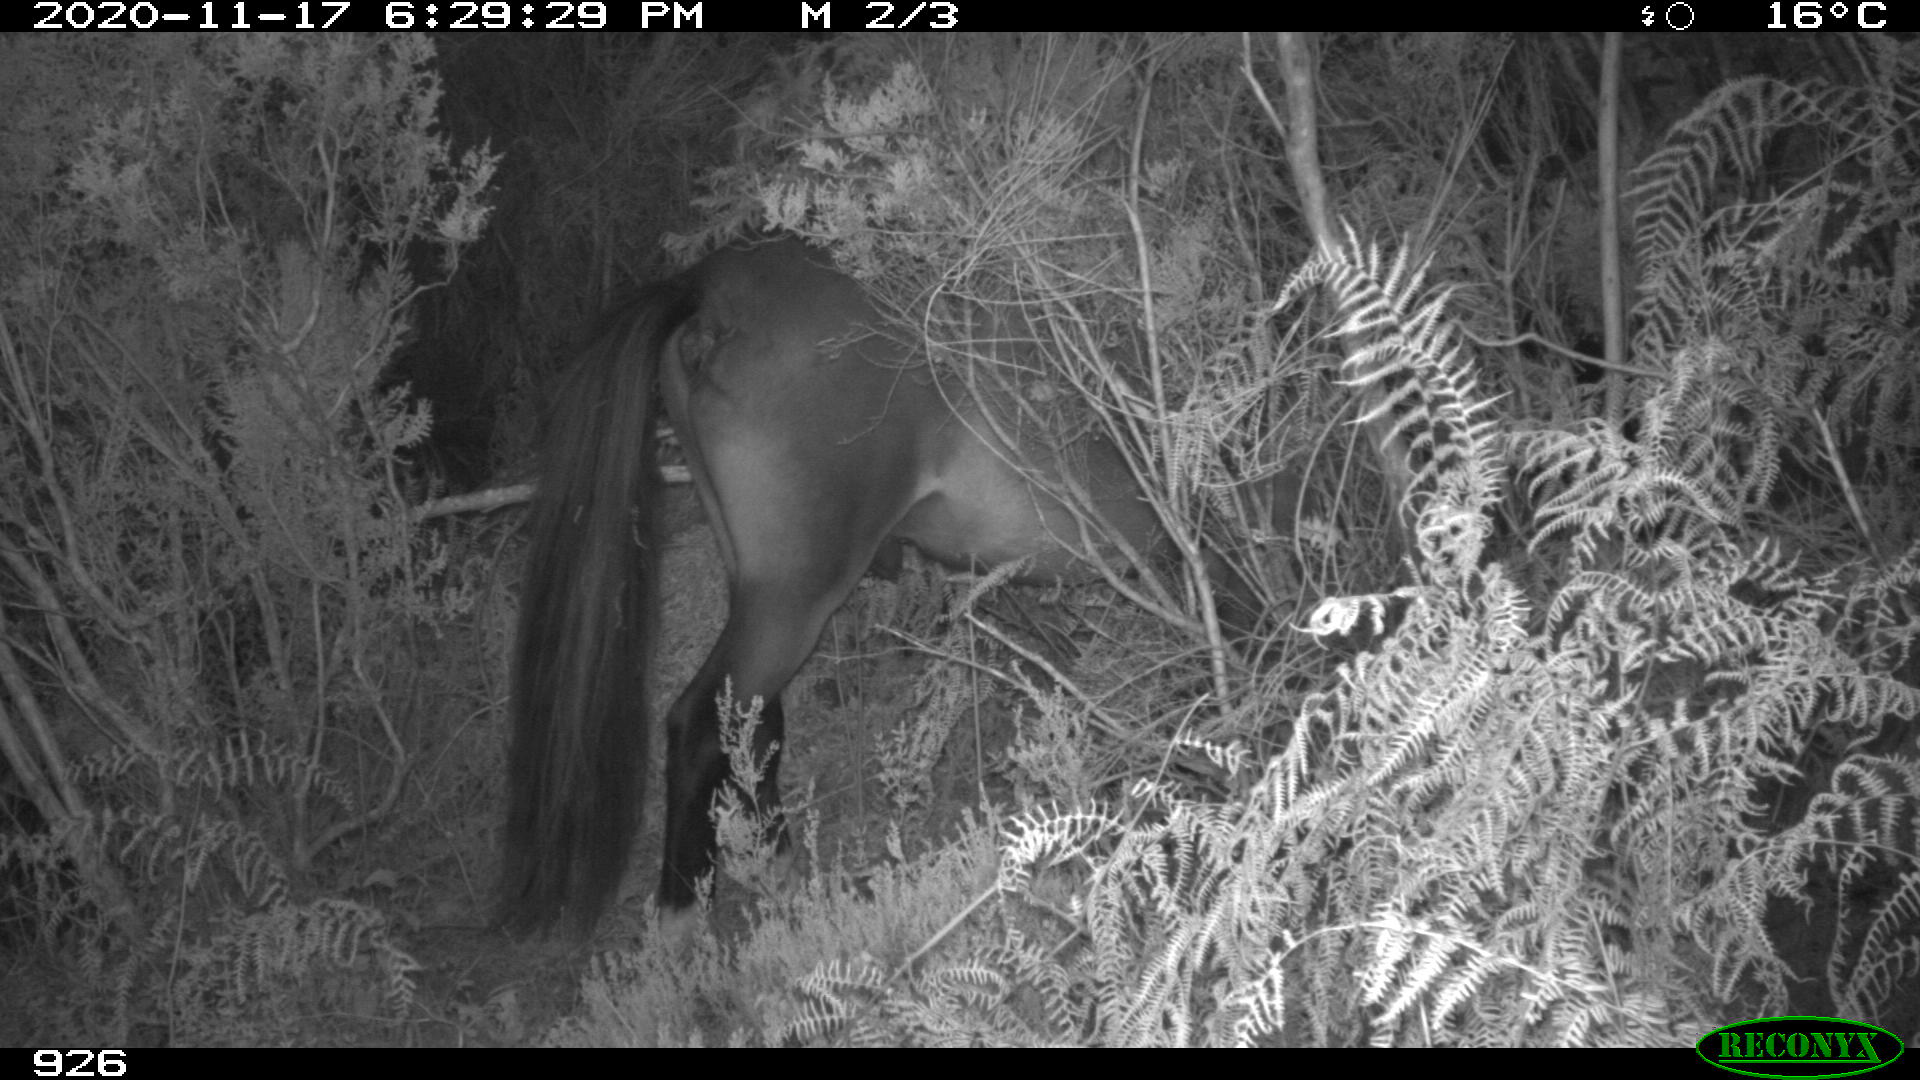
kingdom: Animalia
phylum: Chordata
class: Mammalia
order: Perissodactyla
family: Equidae
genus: Equus
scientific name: Equus caballus
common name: Horse
